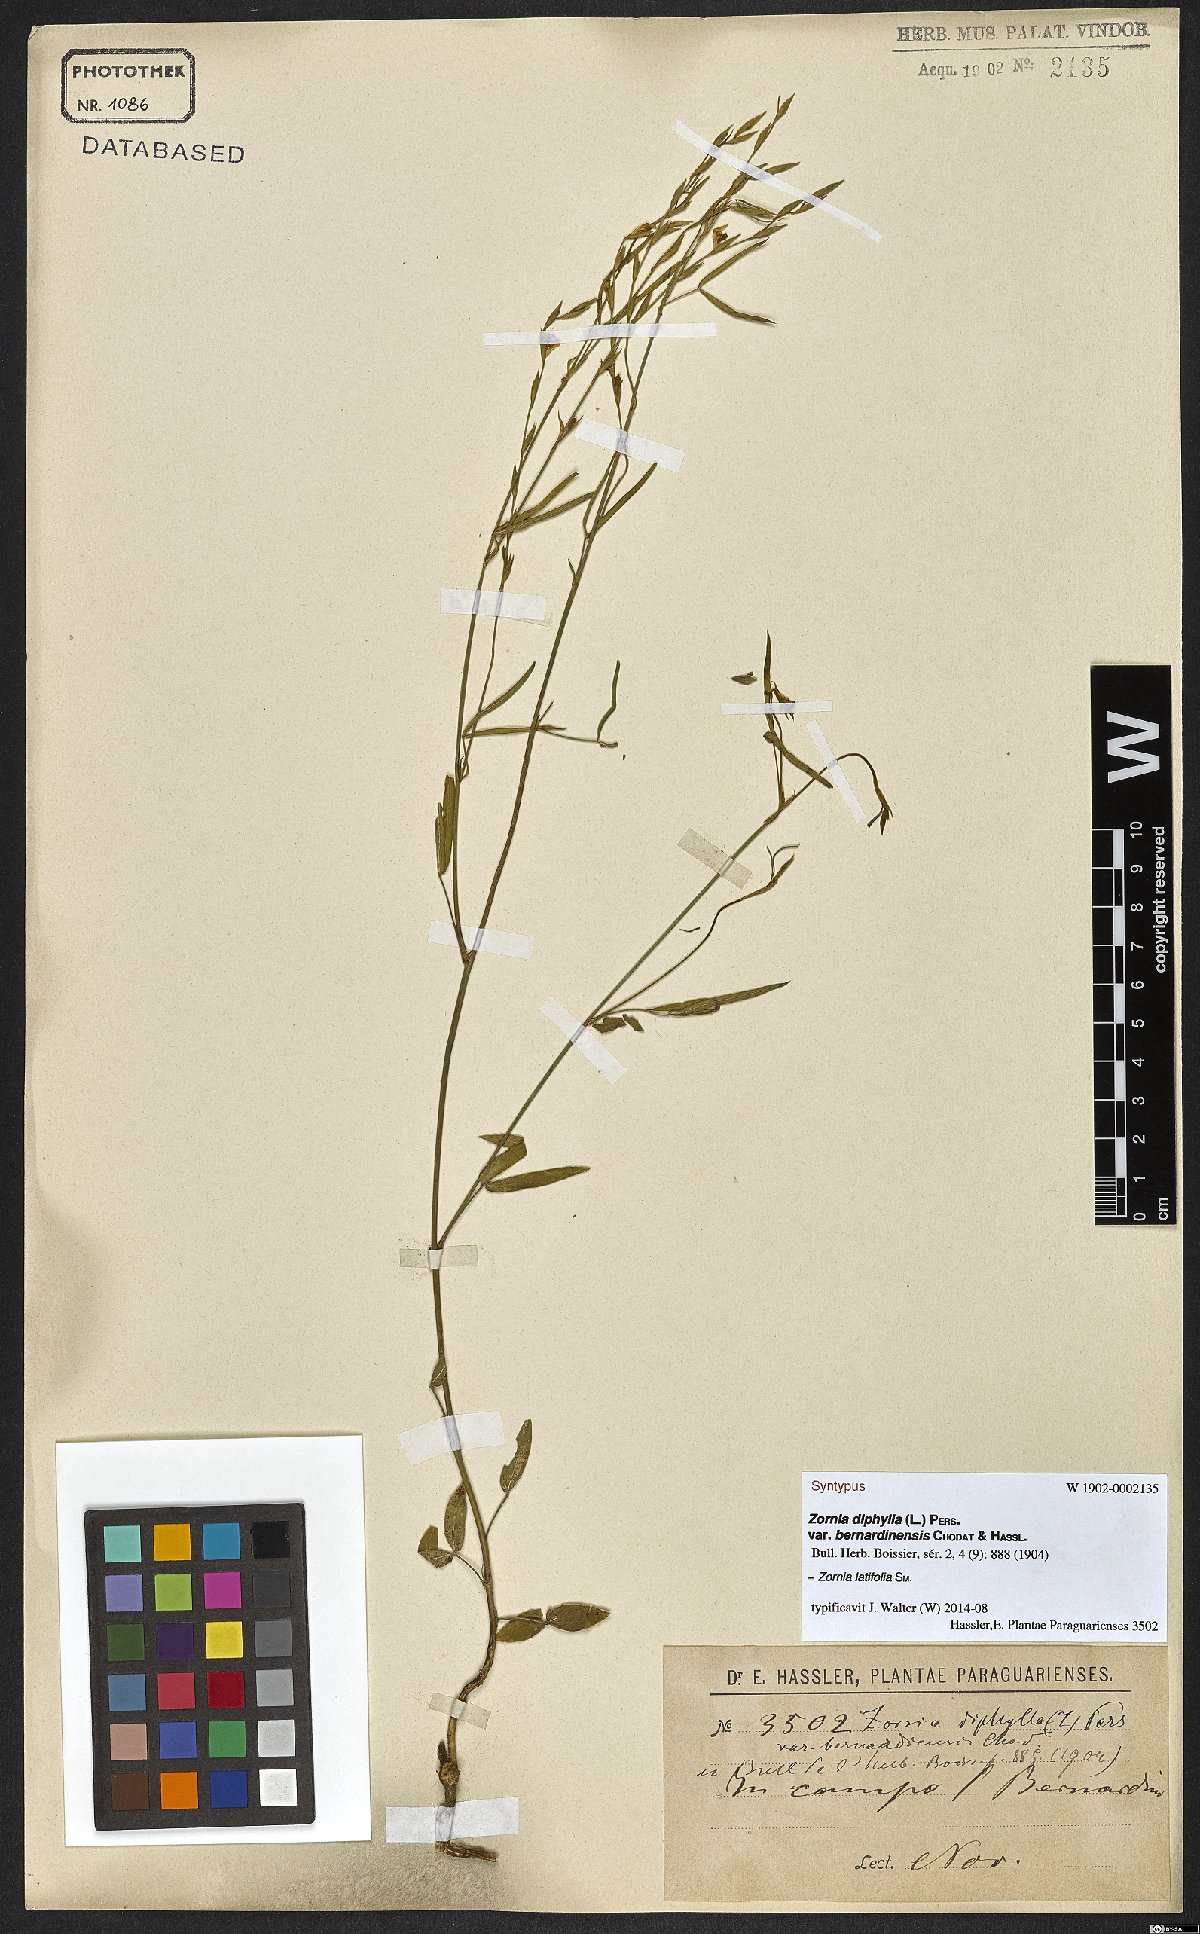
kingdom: Plantae
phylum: Tracheophyta
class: Magnoliopsida
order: Fabales
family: Fabaceae
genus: Zornia
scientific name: Zornia latifolia
